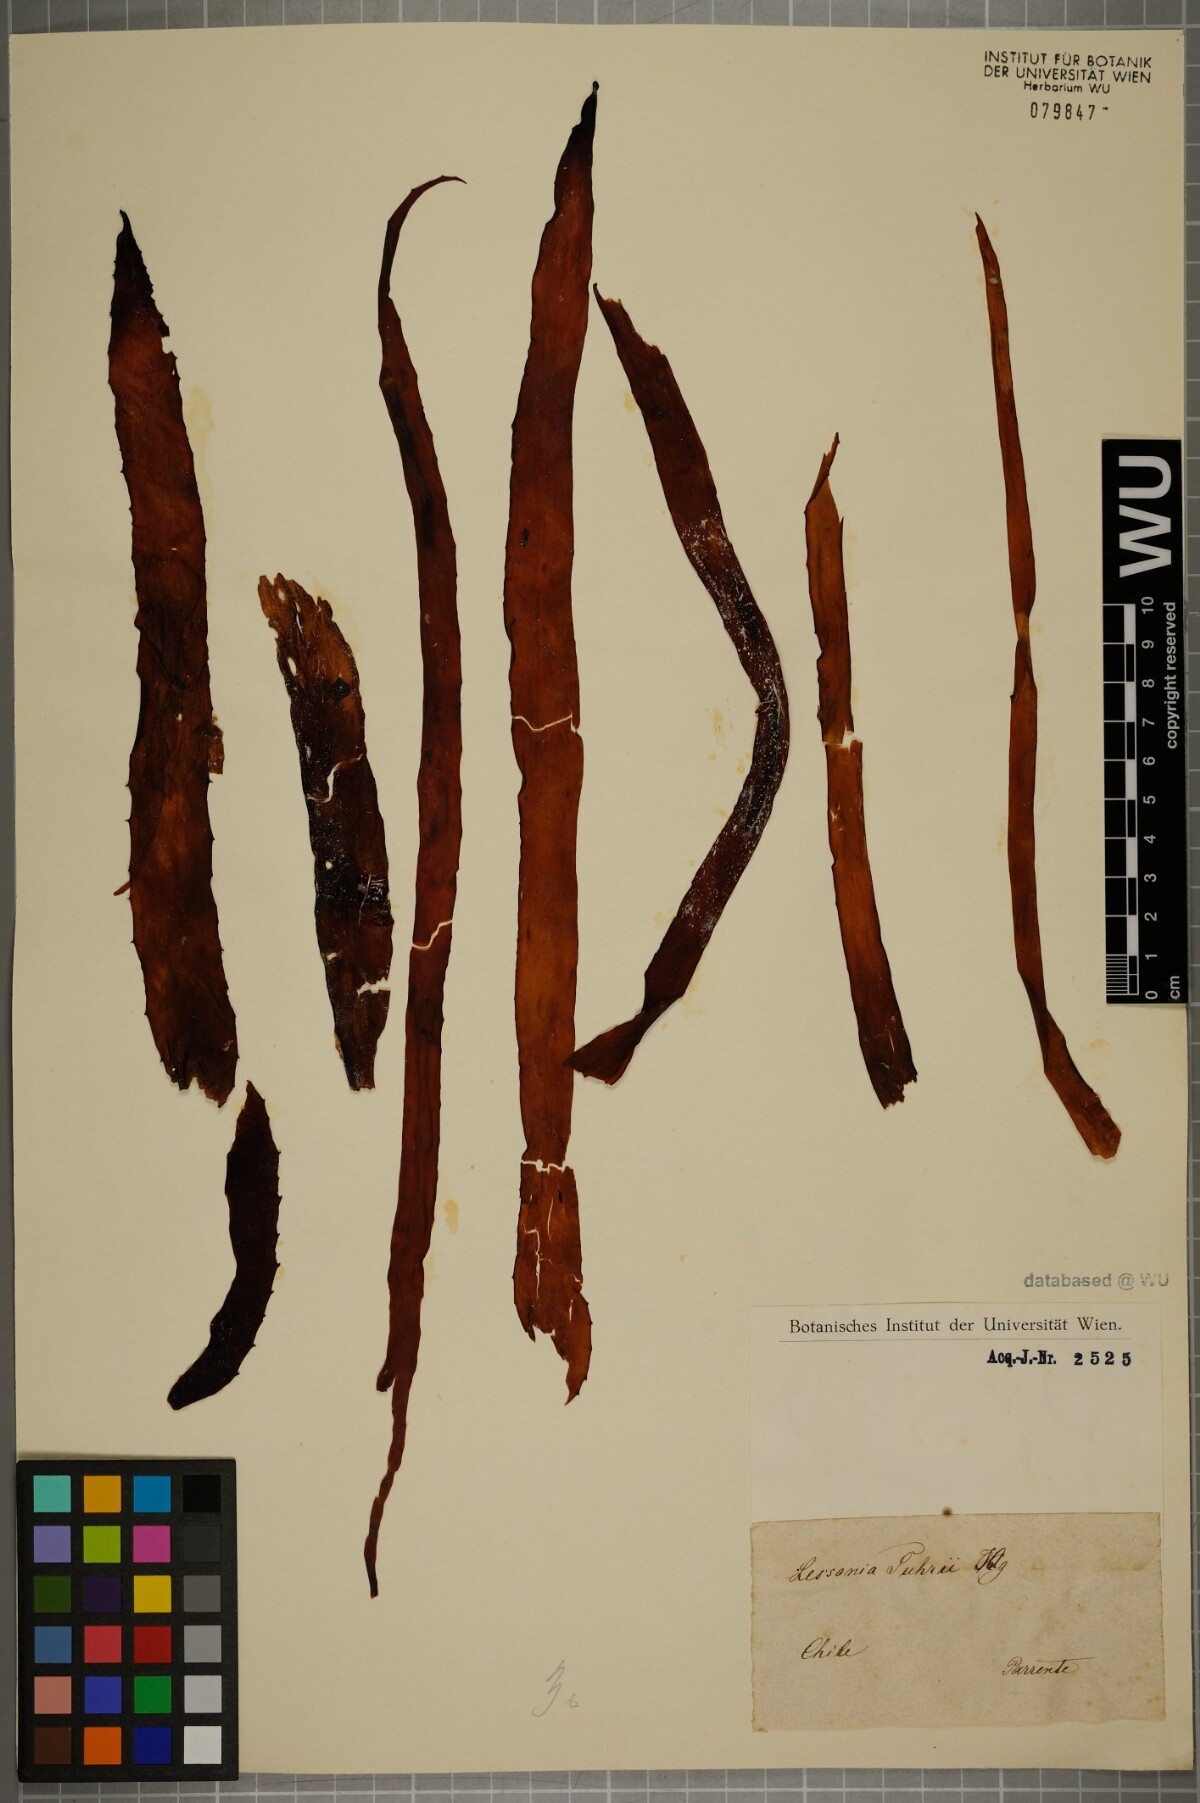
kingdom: Chromista
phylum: Ochrophyta
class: Phaeophyceae
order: Laminariales
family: Lessoniaceae
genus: Lessonia
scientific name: Lessonia
